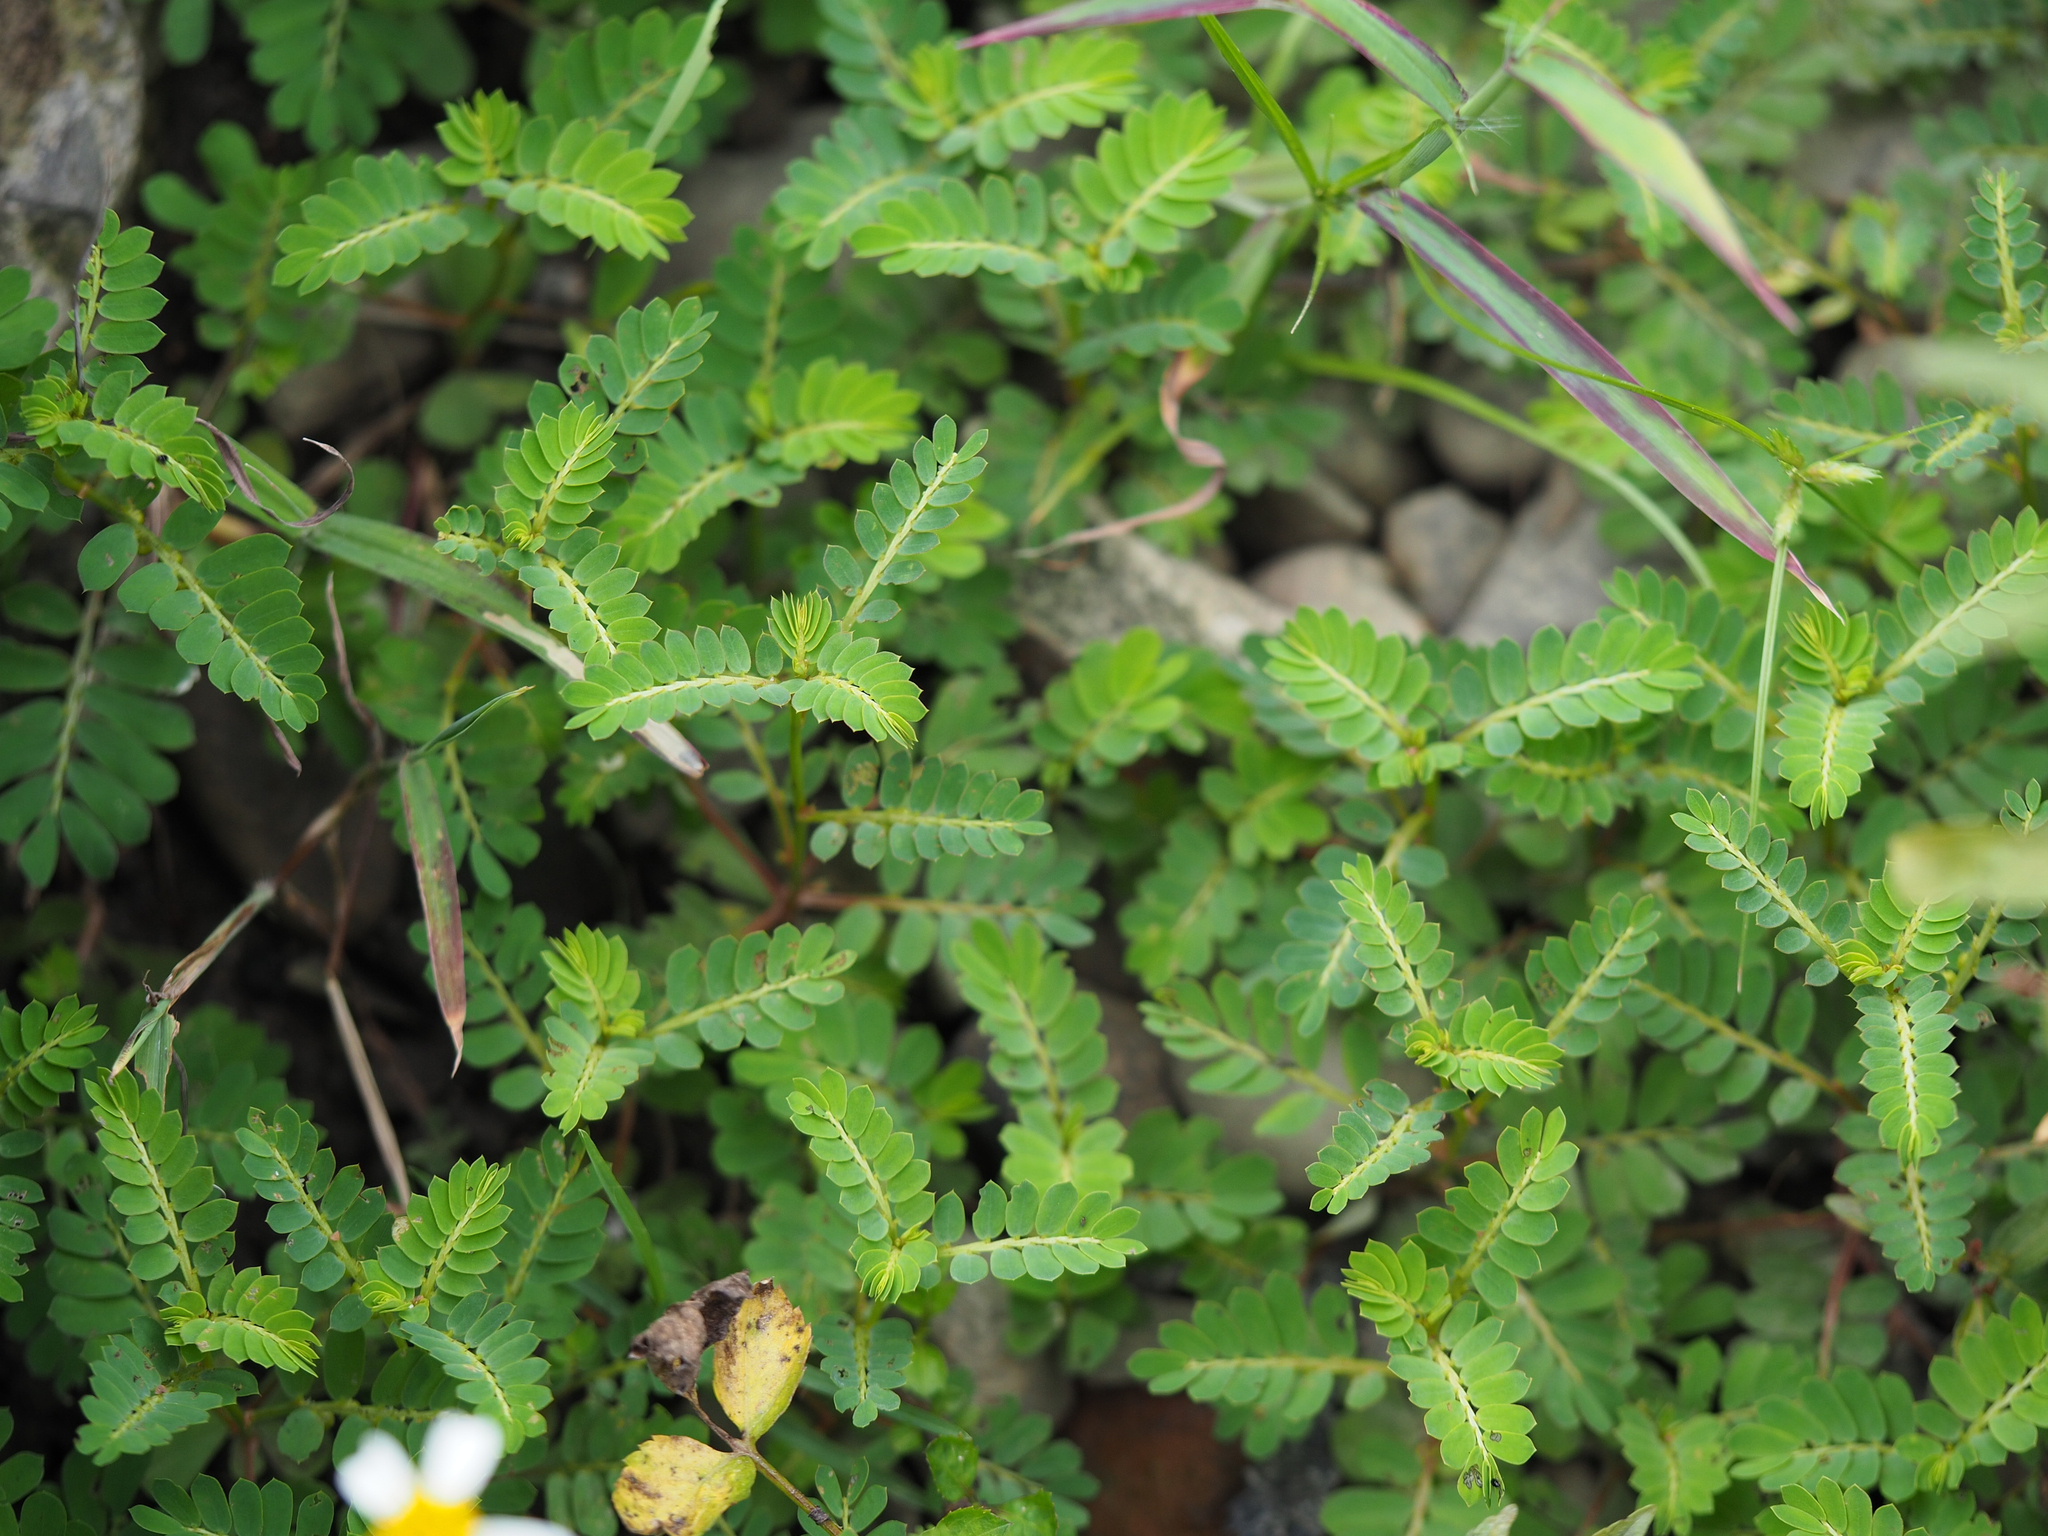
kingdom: Plantae
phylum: Tracheophyta
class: Magnoliopsida
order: Malpighiales
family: Phyllanthaceae
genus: Phyllanthus
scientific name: Phyllanthus urinaria
